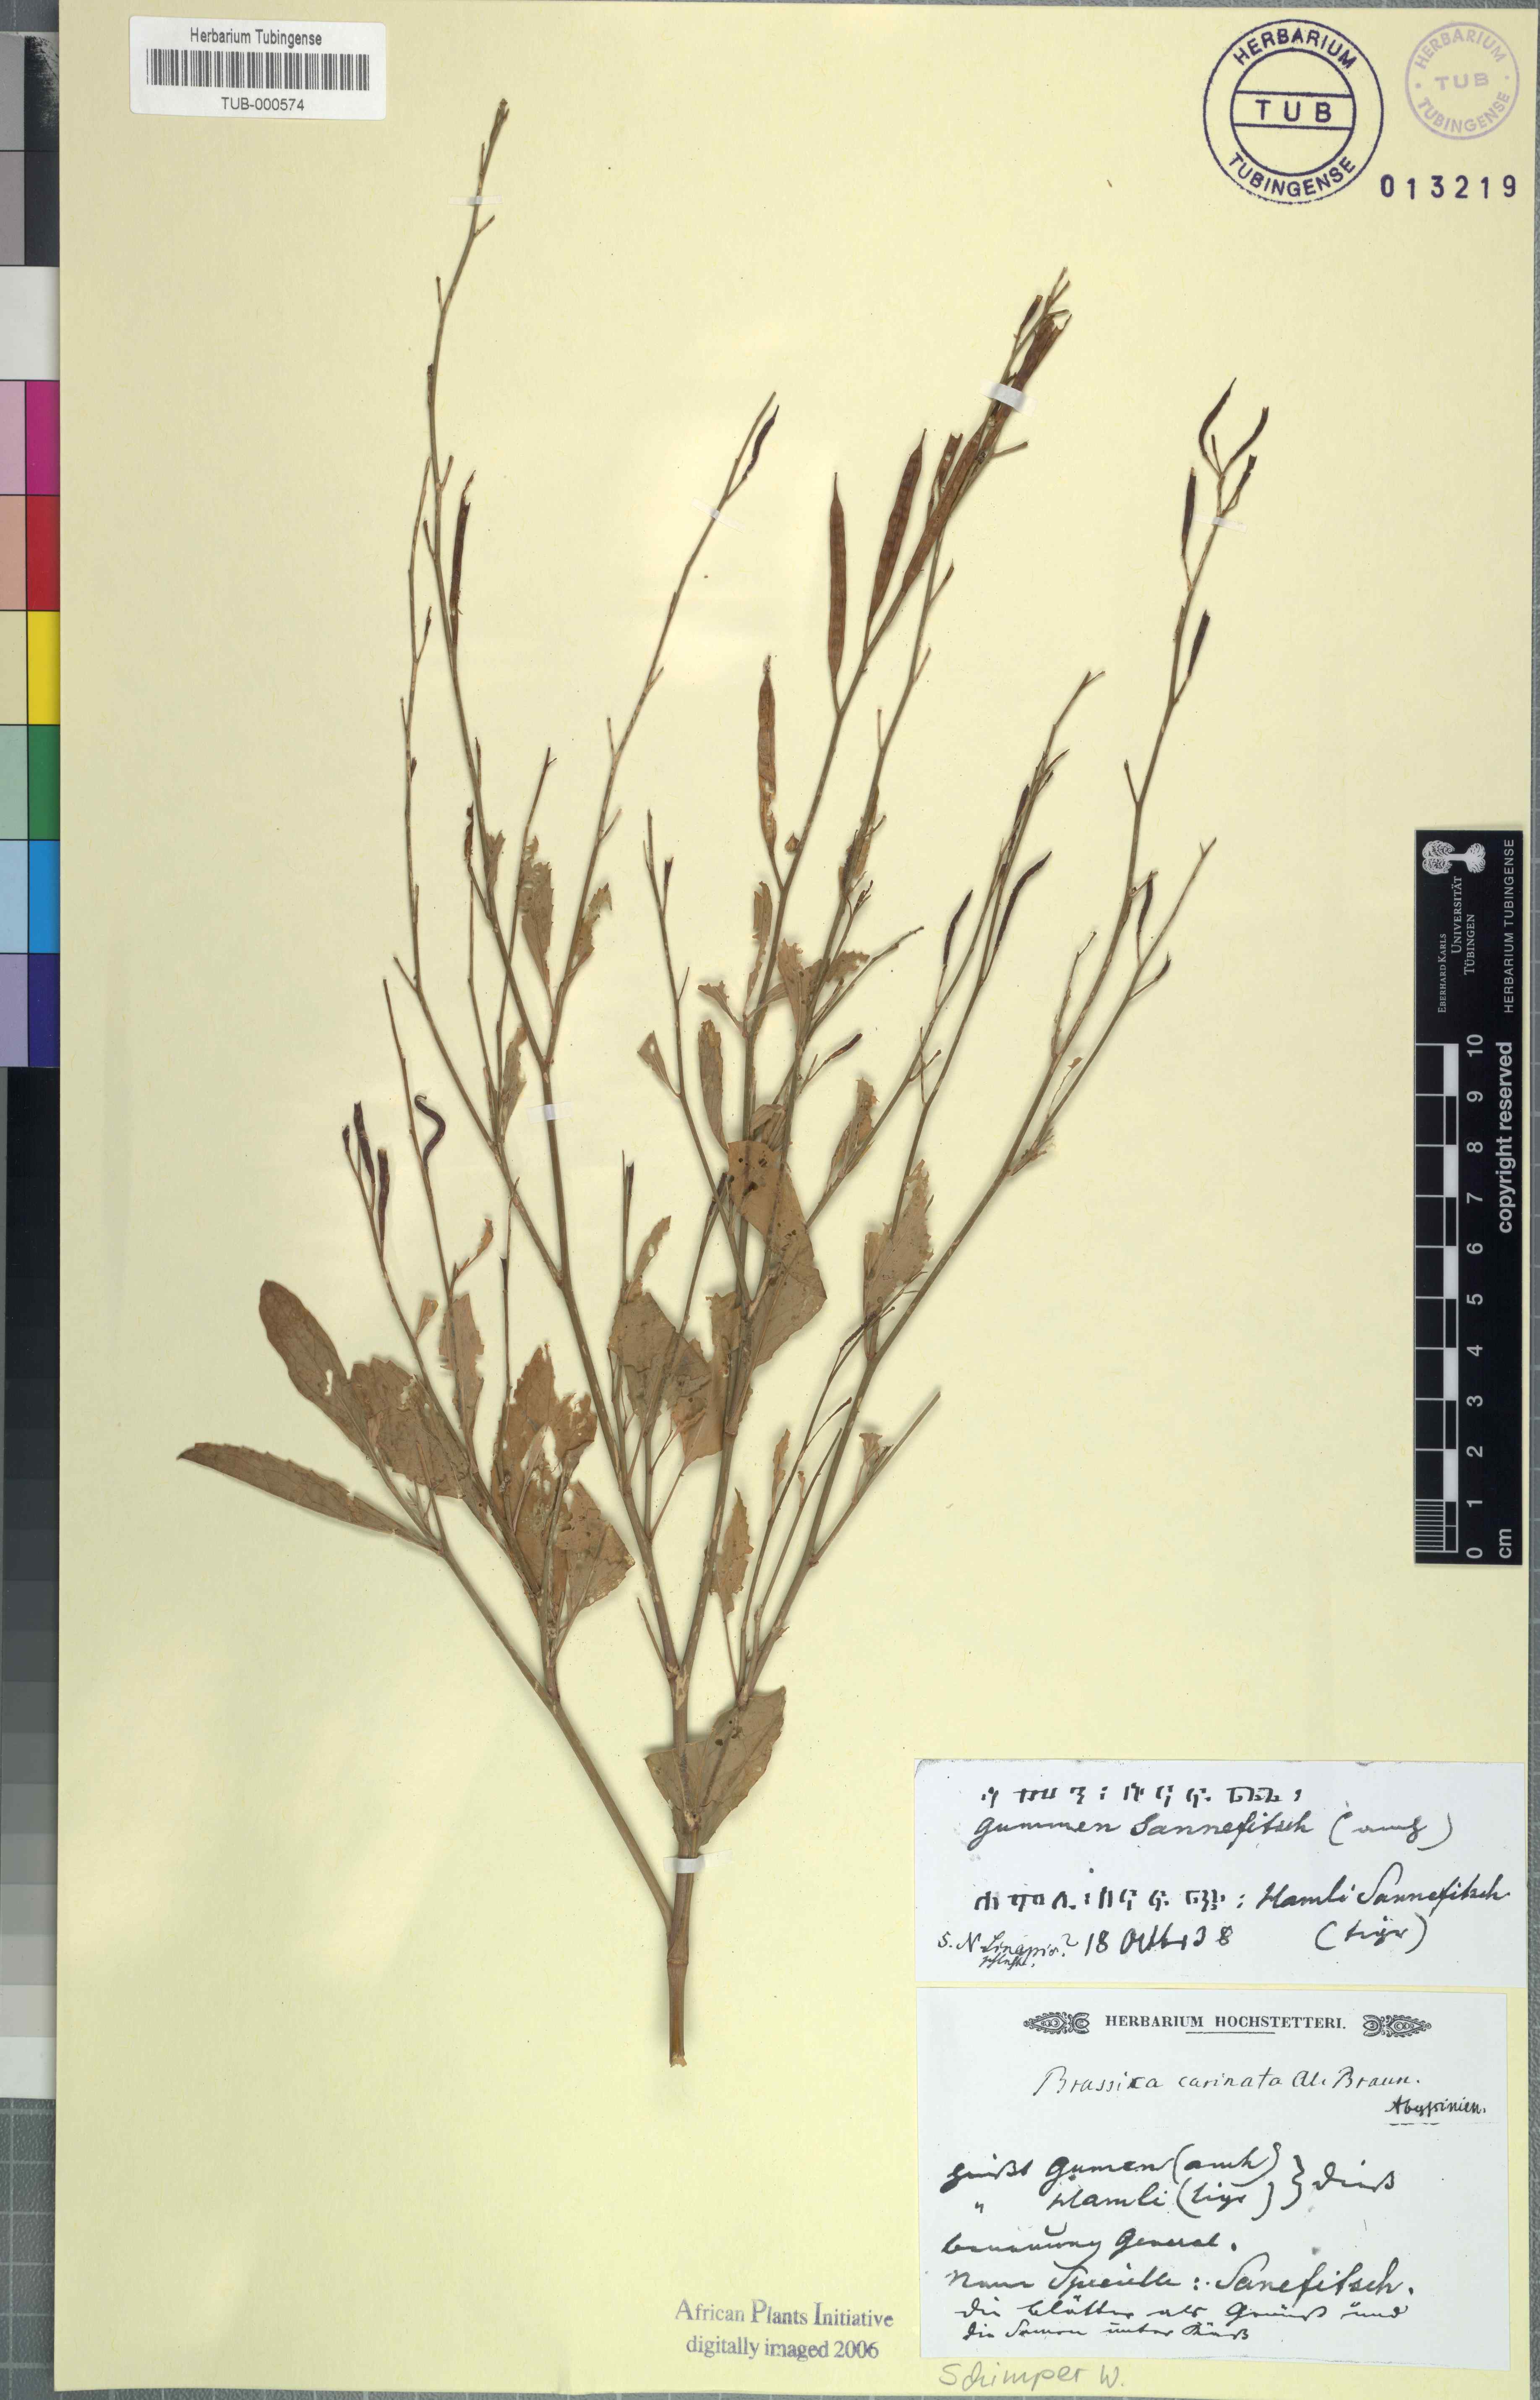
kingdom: Plantae
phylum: Tracheophyta
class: Magnoliopsida
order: Brassicales
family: Brassicaceae
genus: Brassica
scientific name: Brassica carinata
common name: Ethiopian rape
